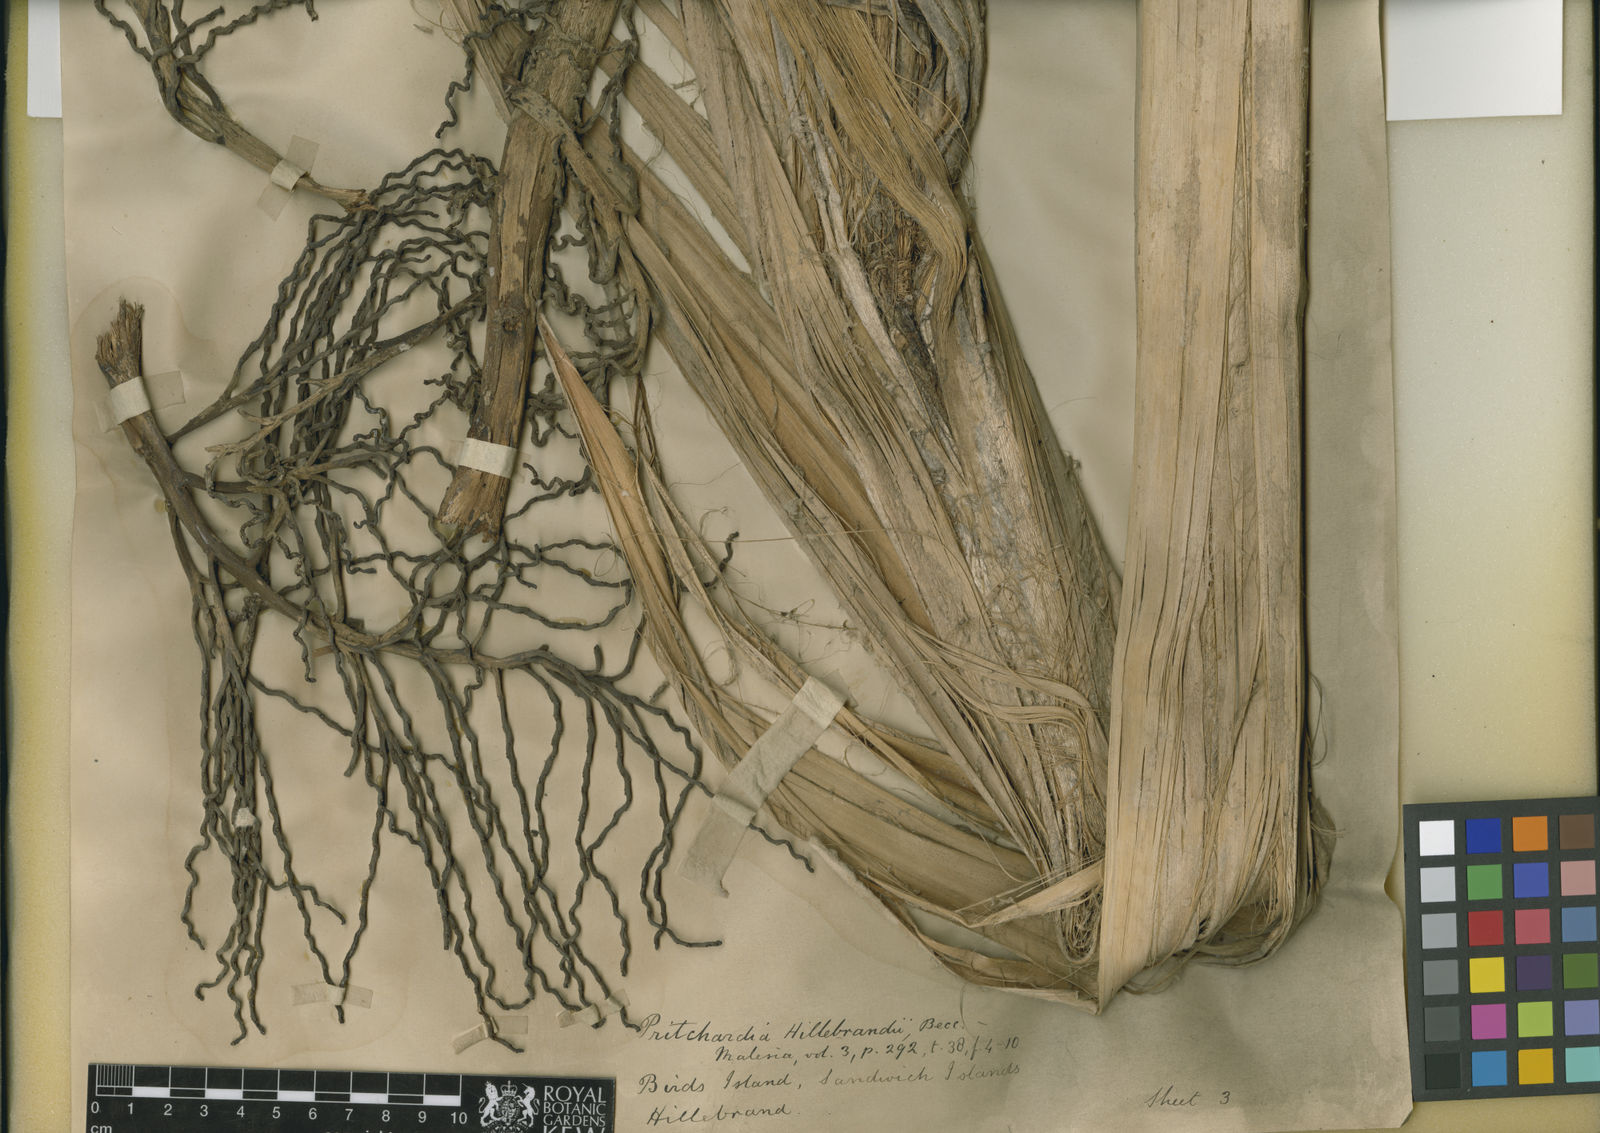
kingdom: Plantae
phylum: Tracheophyta
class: Liliopsida
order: Arecales
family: Arecaceae
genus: Pritchardia
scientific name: Pritchardia hillebrandii
